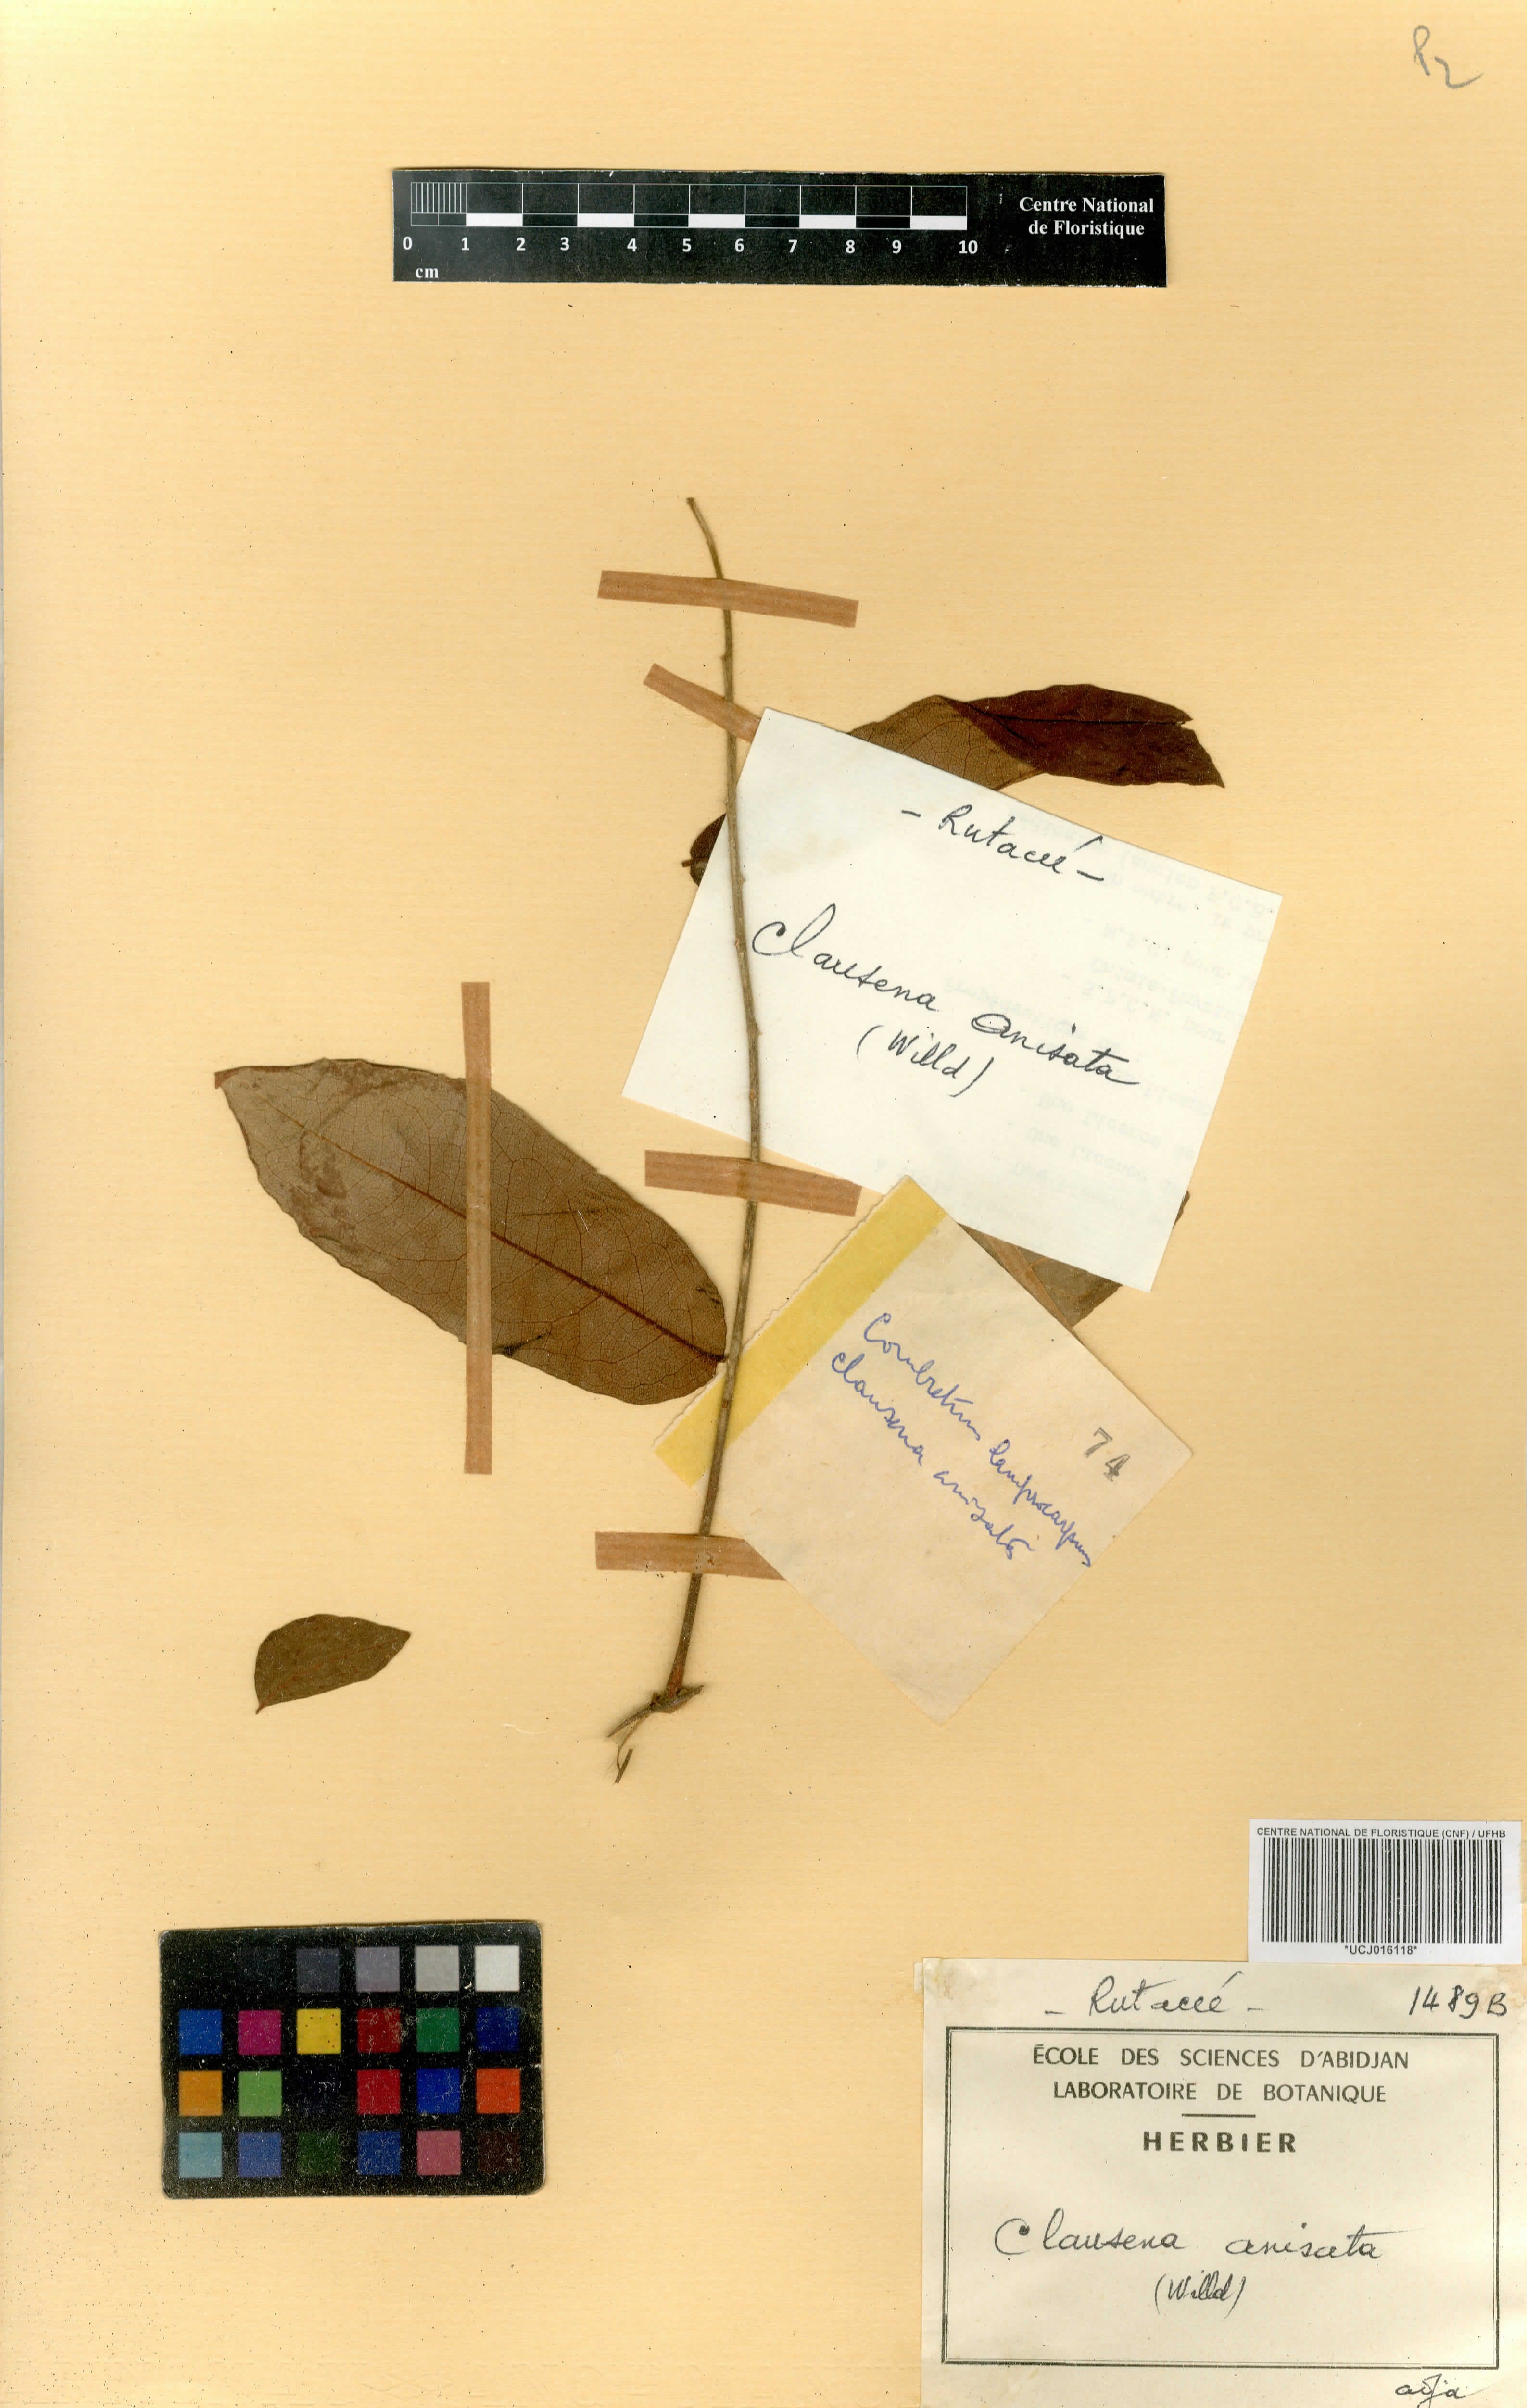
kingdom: Plantae
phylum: Tracheophyta
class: Magnoliopsida
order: Sapindales
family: Rutaceae
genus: Clausena
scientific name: Clausena anisata
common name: Horsewood
